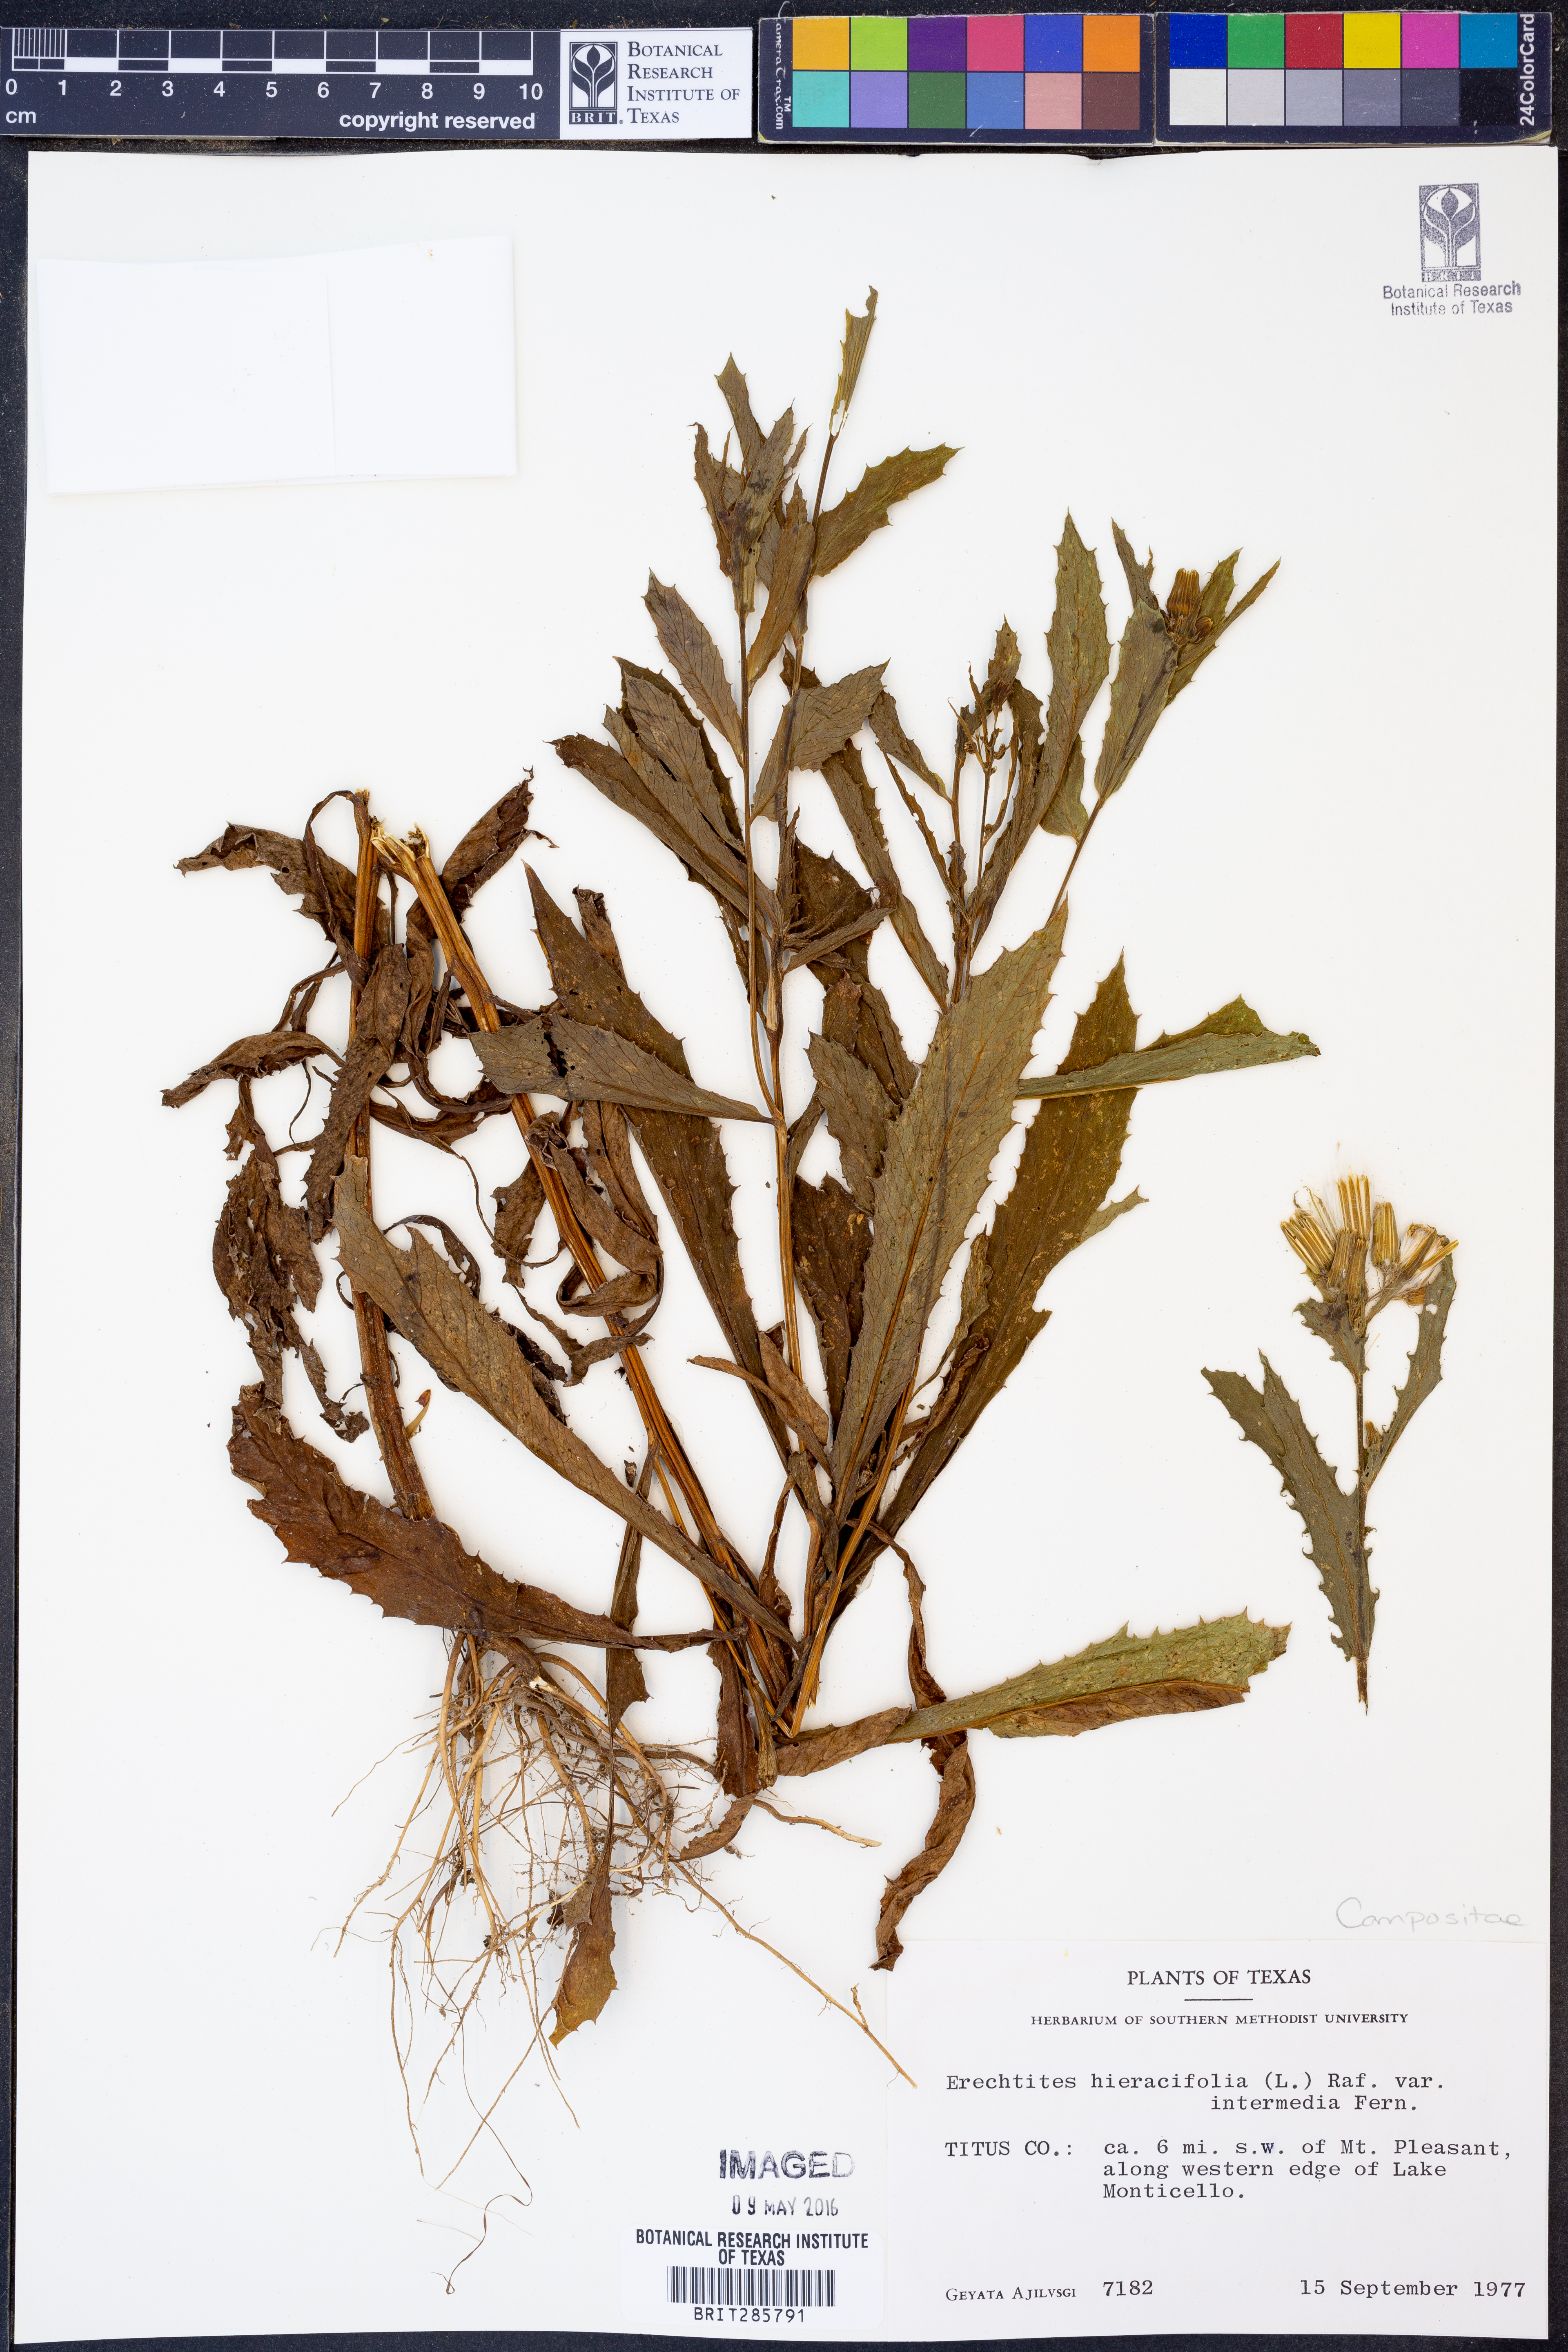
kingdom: Plantae
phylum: Tracheophyta
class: Magnoliopsida
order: Asterales
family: Asteraceae
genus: Erechtites
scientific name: Erechtites hieraciifolius
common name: American burnweed
